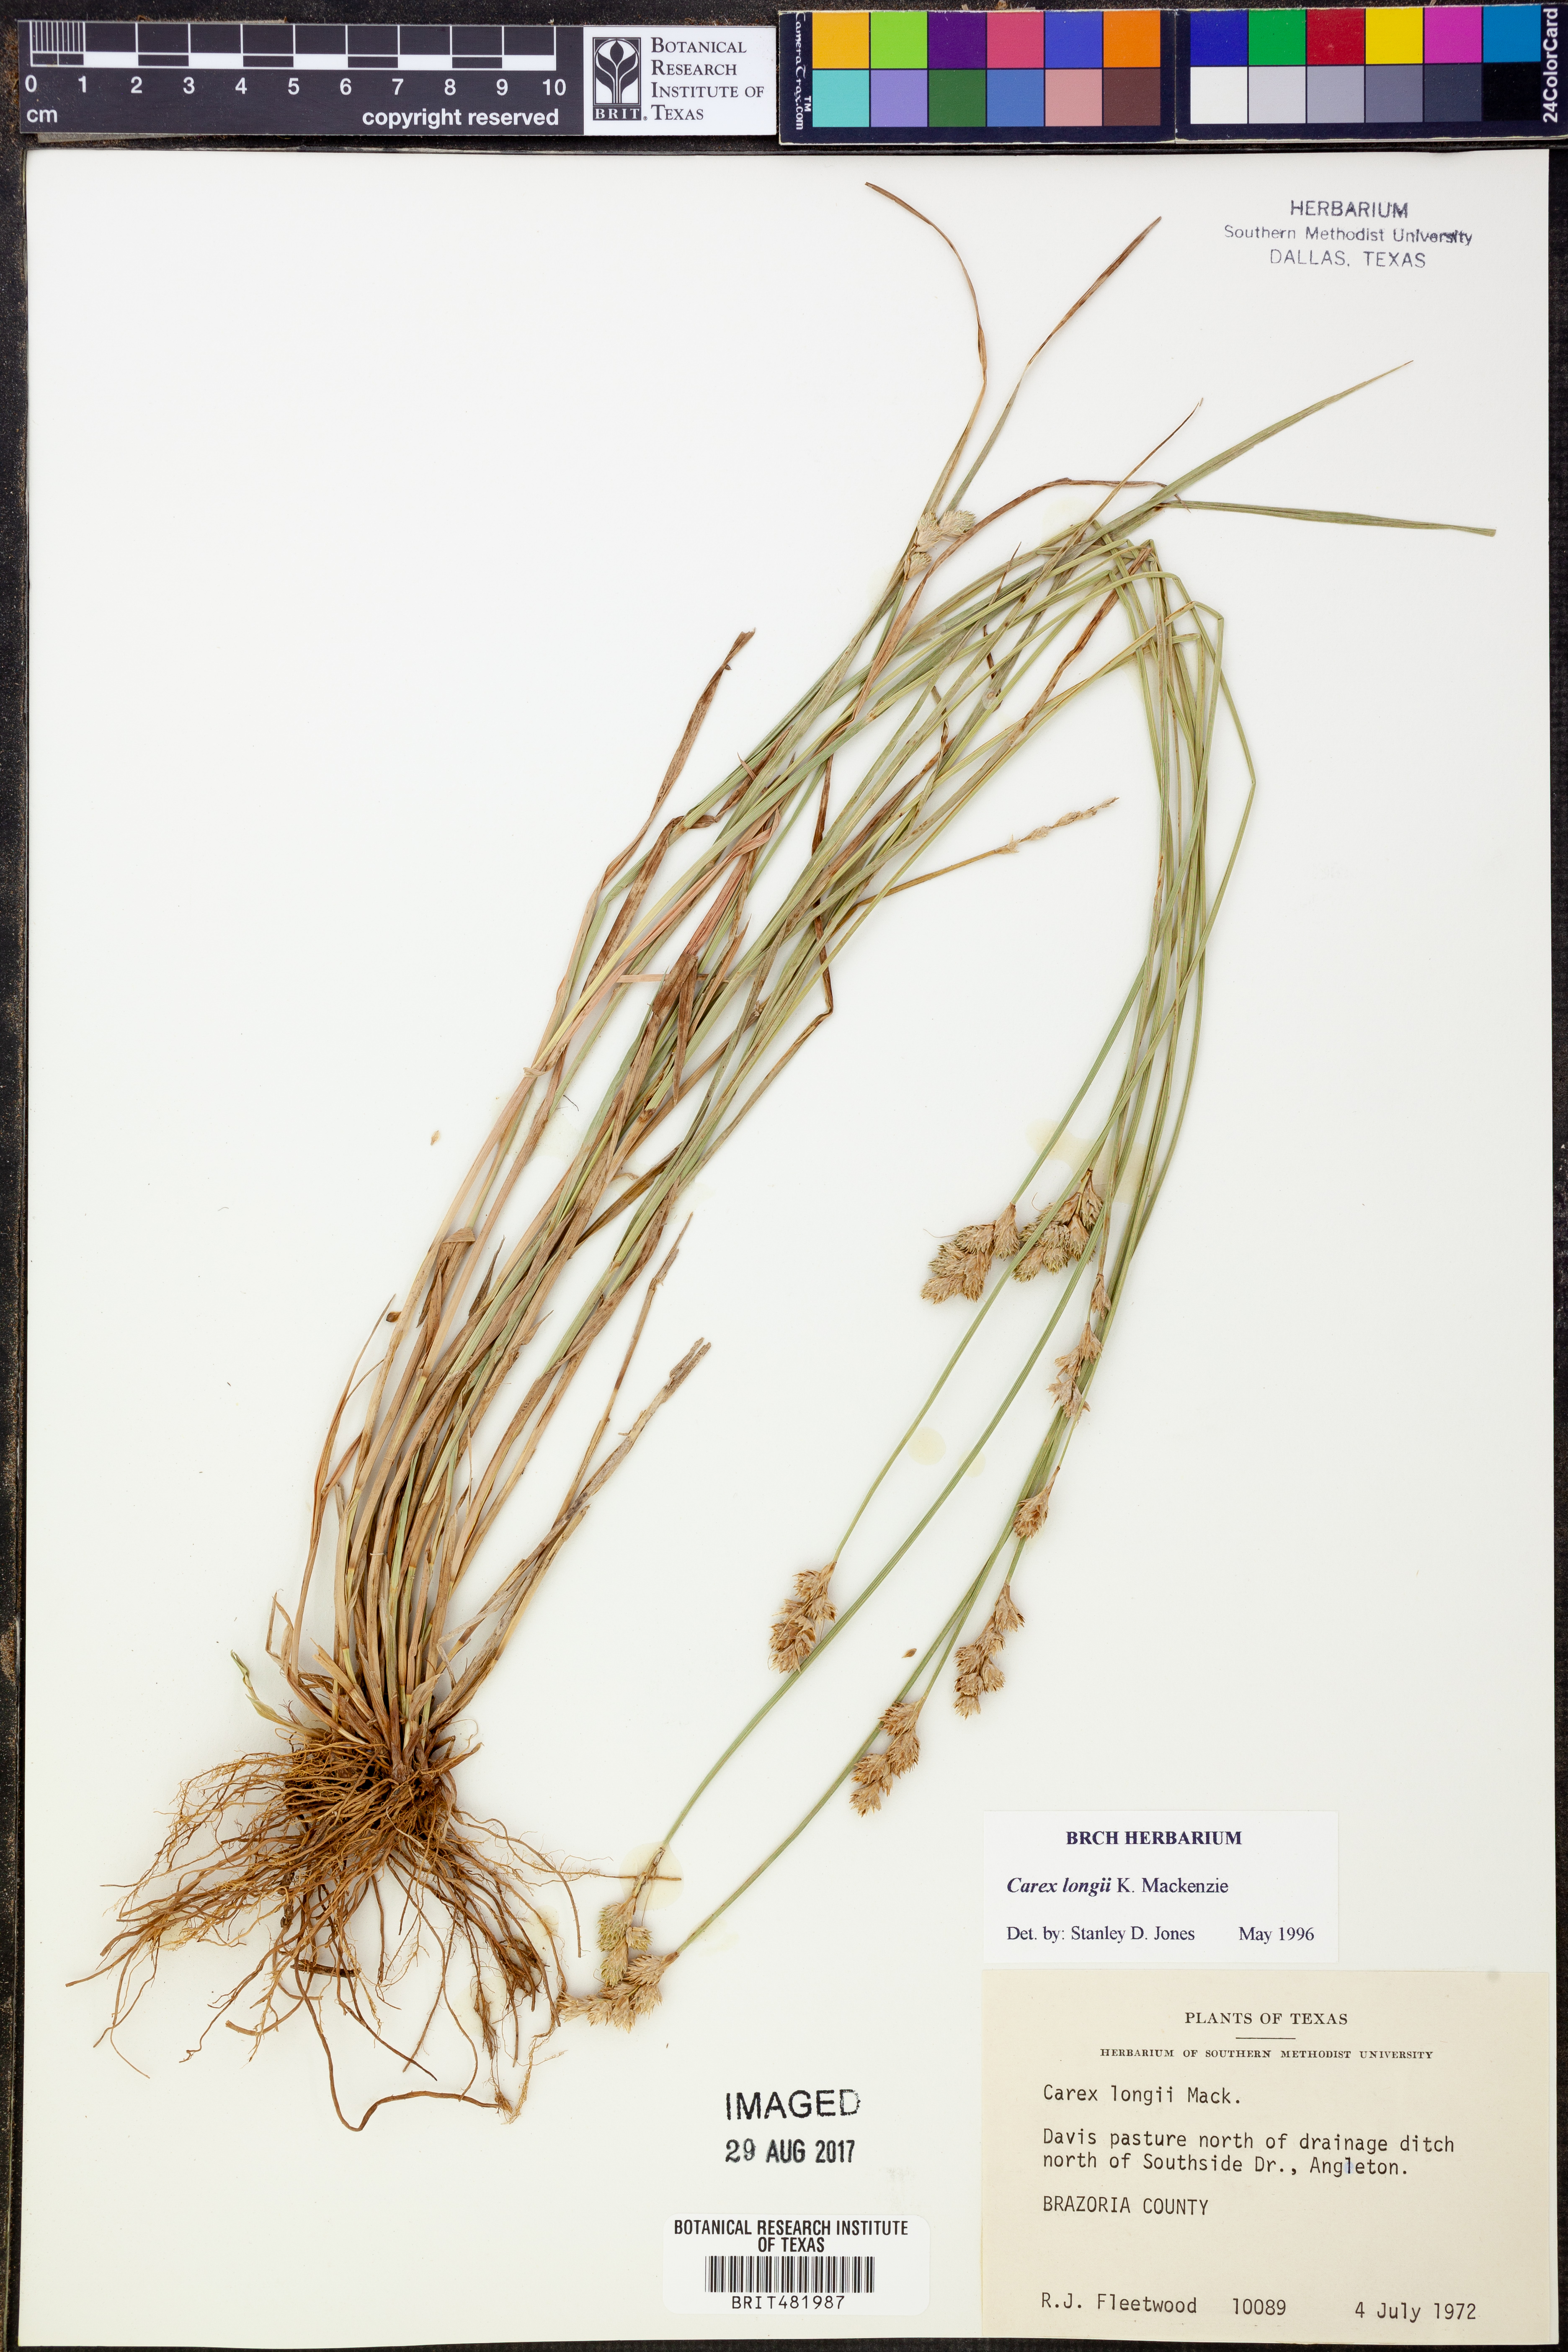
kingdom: Plantae
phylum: Tracheophyta
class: Liliopsida
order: Poales
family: Cyperaceae
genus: Carex
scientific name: Carex longii
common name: Long's sedge
